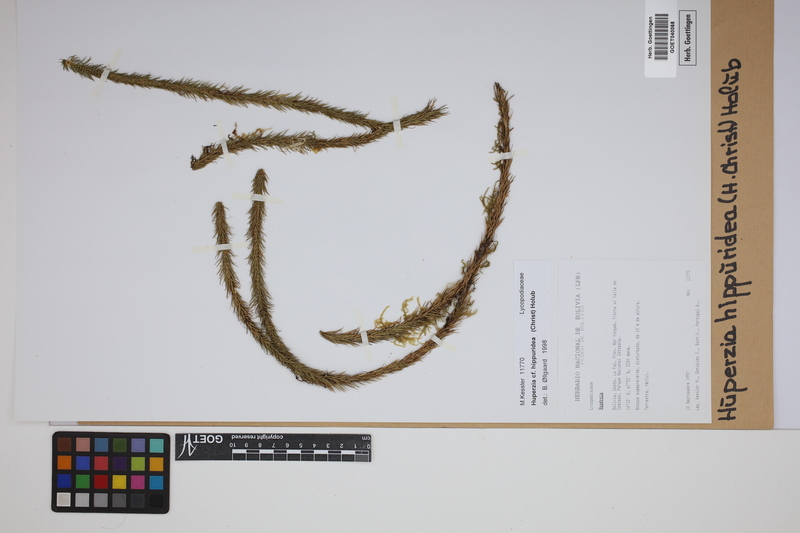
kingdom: Plantae
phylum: Tracheophyta
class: Lycopodiopsida
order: Lycopodiales
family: Lycopodiaceae
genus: Phlegmariurus
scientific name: Phlegmariurus hippurideus
